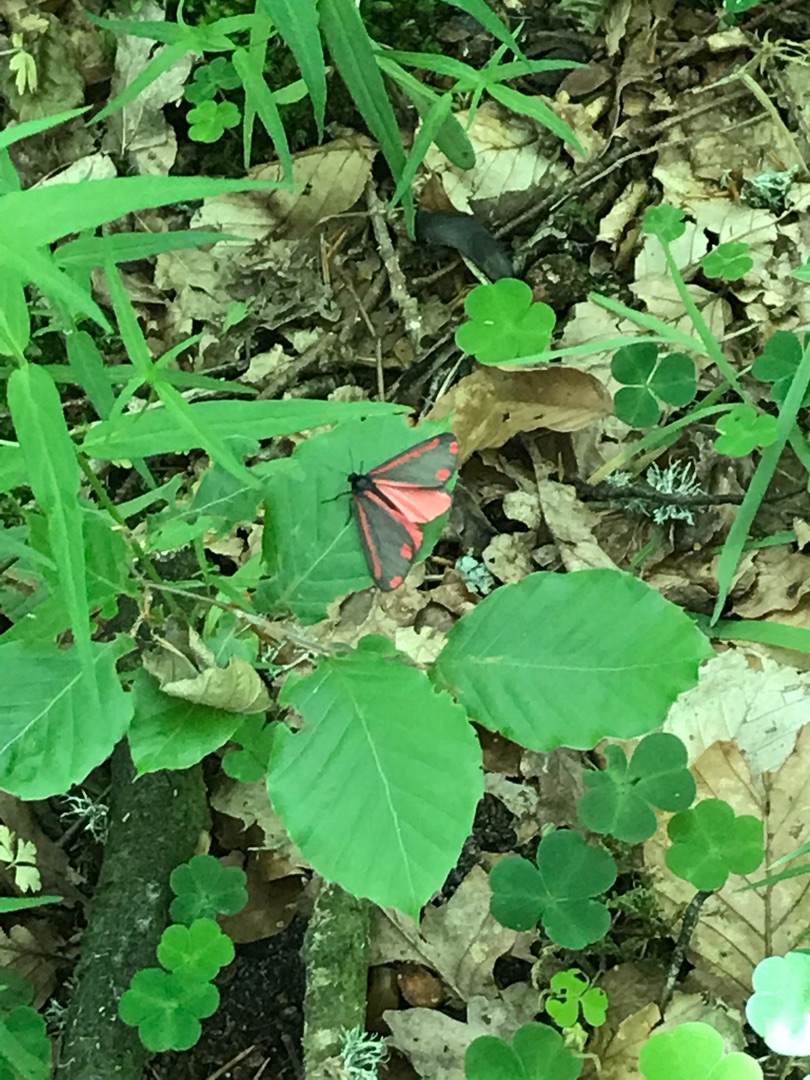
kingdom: Animalia
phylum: Arthropoda
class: Insecta
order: Lepidoptera
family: Erebidae
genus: Tyria
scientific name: Tyria jacobaeae
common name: Blodplet
